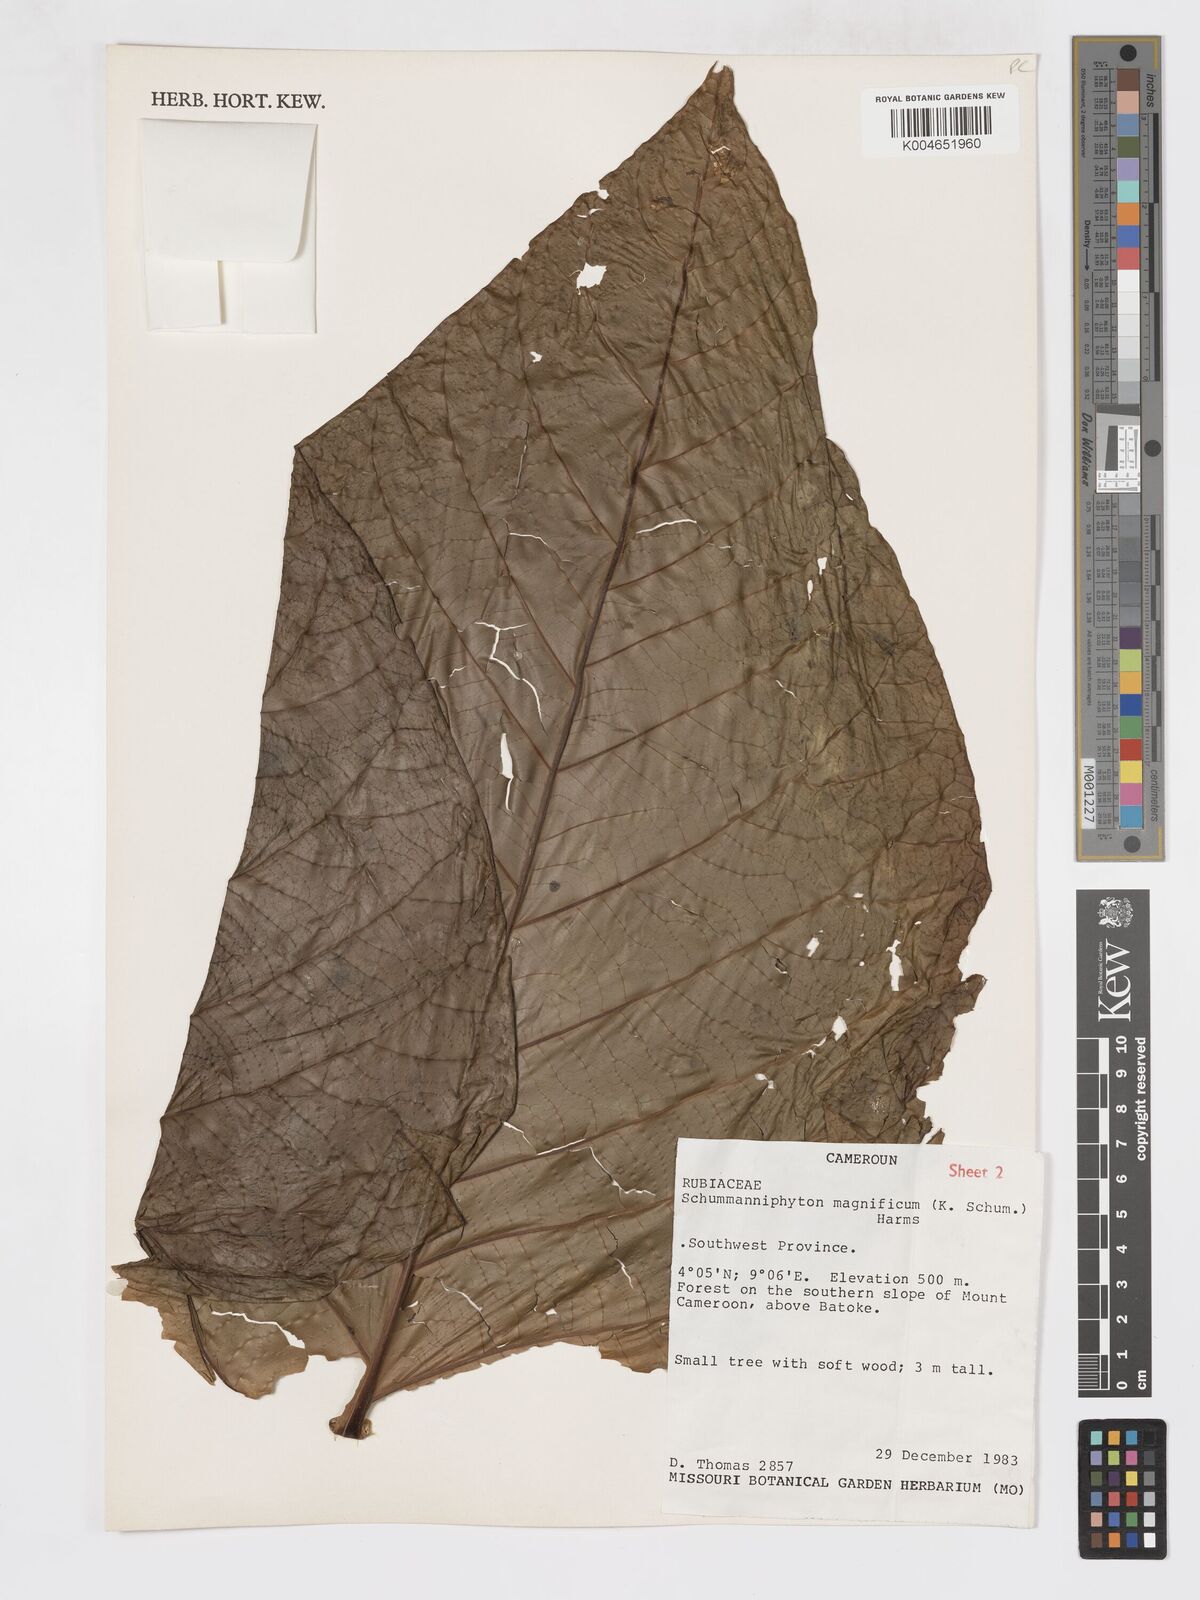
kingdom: Plantae
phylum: Tracheophyta
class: Magnoliopsida
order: Gentianales
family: Rubiaceae
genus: Schumanniophyton
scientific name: Schumanniophyton magnificum
